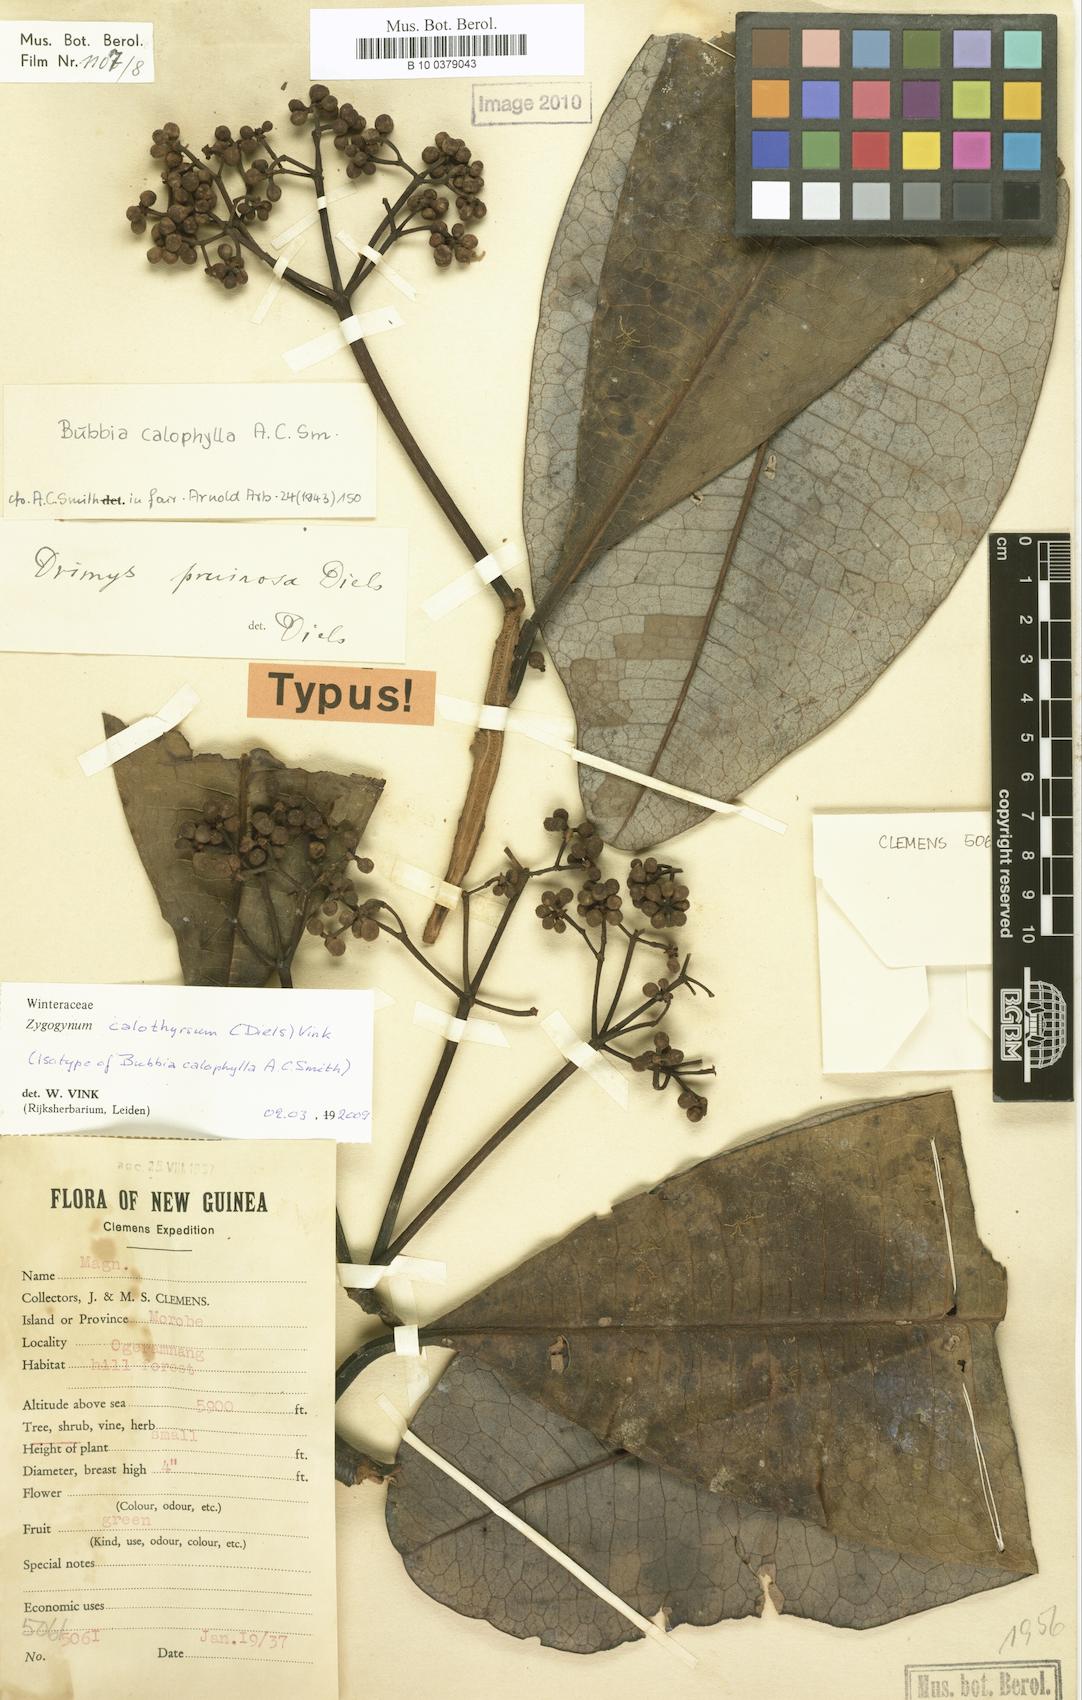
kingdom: Plantae
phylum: Tracheophyta
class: Magnoliopsida
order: Canellales
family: Winteraceae
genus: Zygogynum
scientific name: Zygogynum calothyrsum
